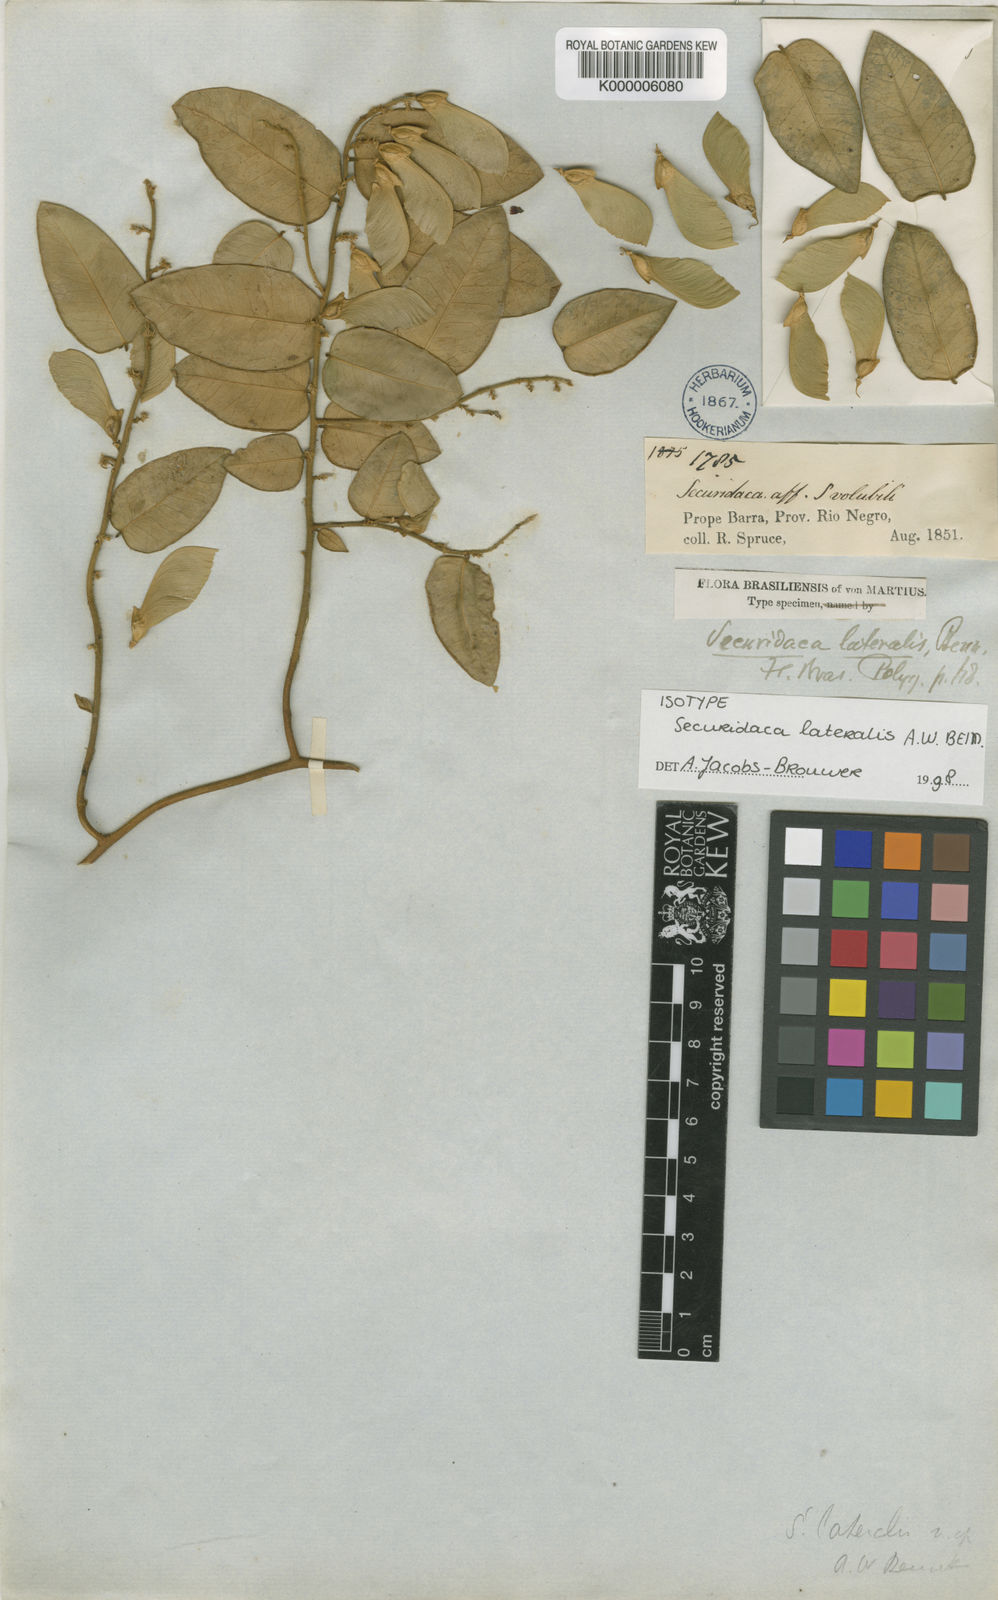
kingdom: Plantae
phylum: Tracheophyta
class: Magnoliopsida
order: Fabales
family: Polygalaceae
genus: Securidaca
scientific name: Securidaca lateralis
